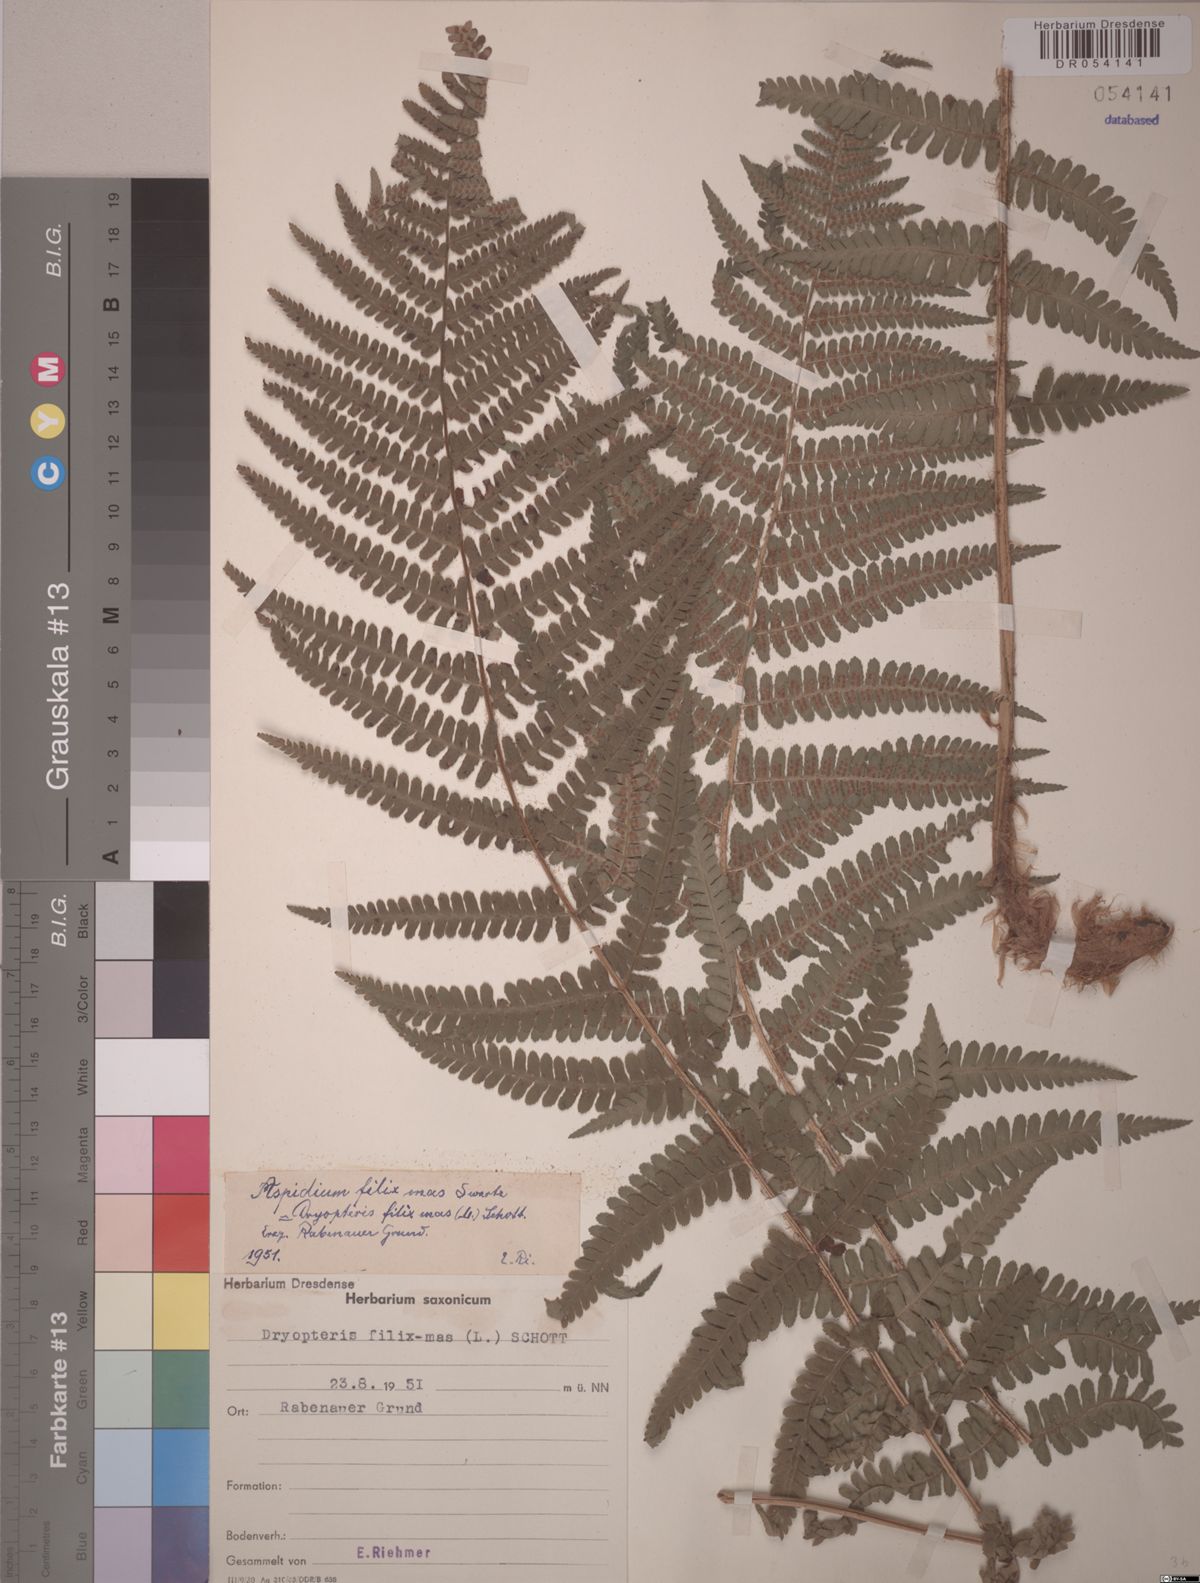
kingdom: Plantae
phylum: Tracheophyta
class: Polypodiopsida
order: Polypodiales
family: Dryopteridaceae
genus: Dryopteris
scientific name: Dryopteris filix-mas
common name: Male fern
